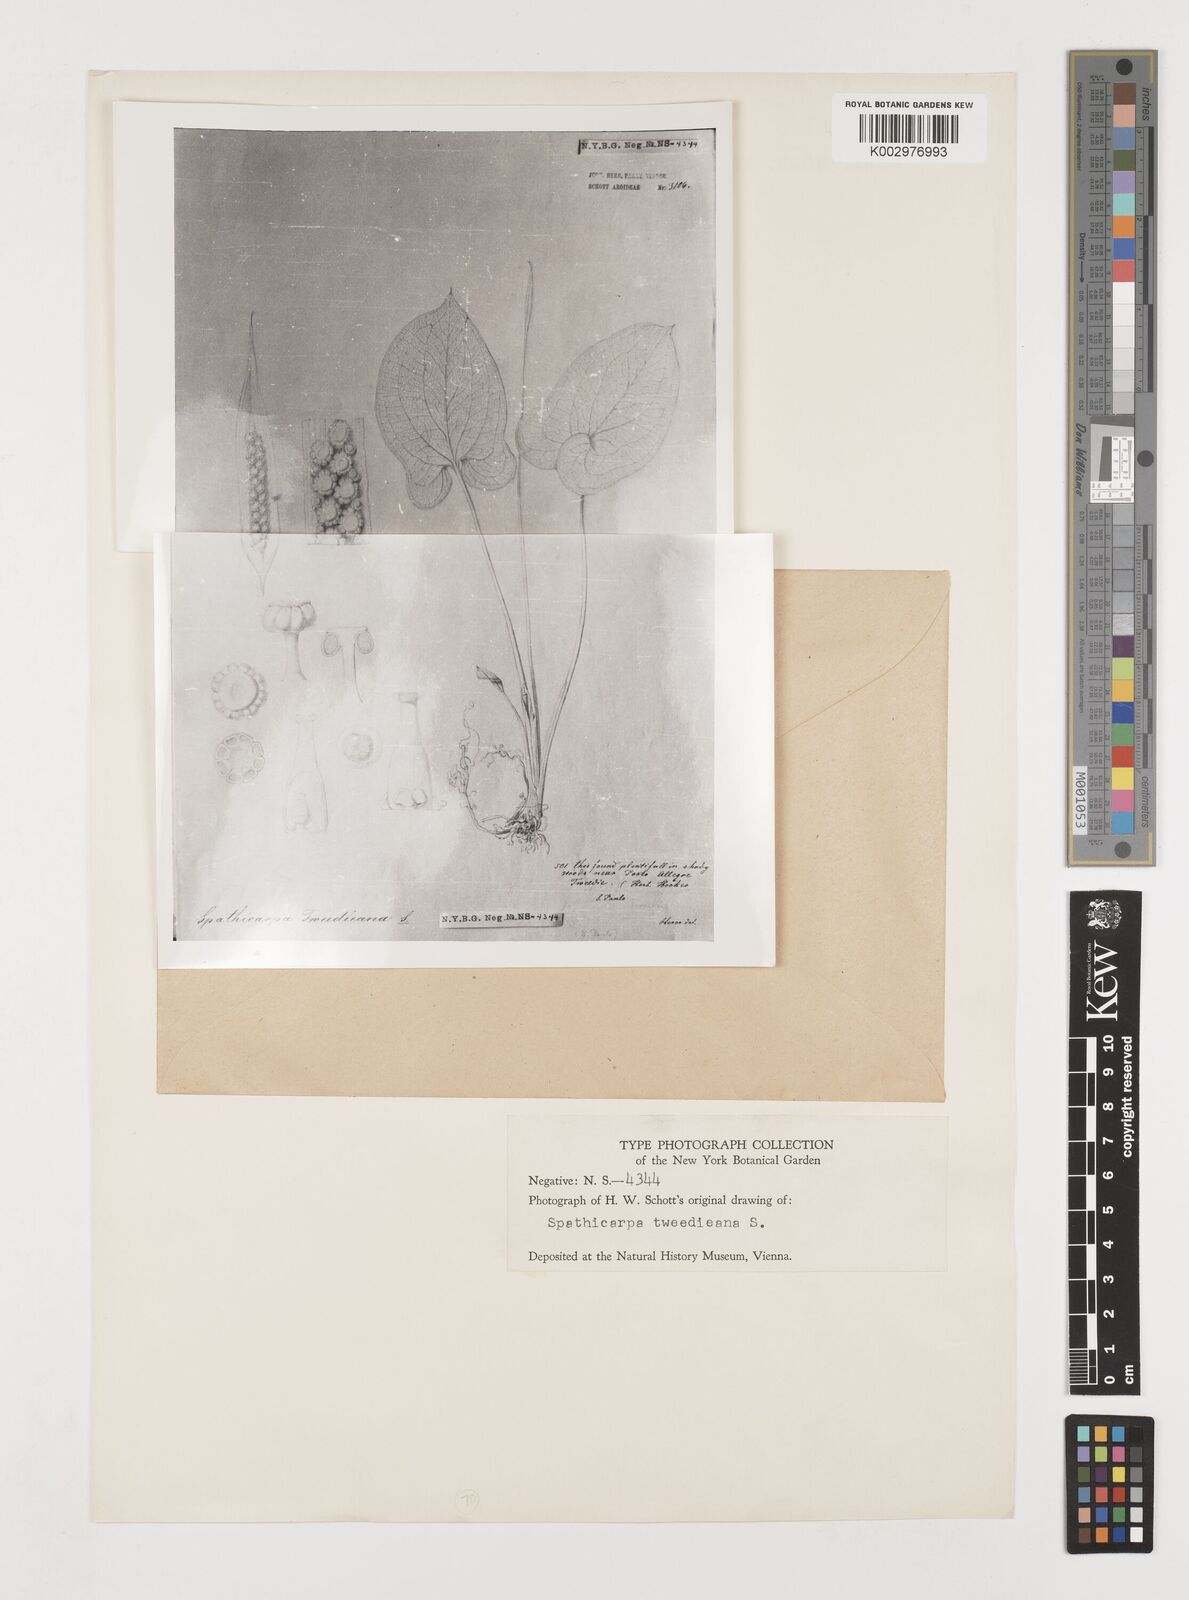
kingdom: Plantae
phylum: Tracheophyta
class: Liliopsida
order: Alismatales
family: Araceae
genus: Spathicarpa
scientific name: Spathicarpa hastifolia
